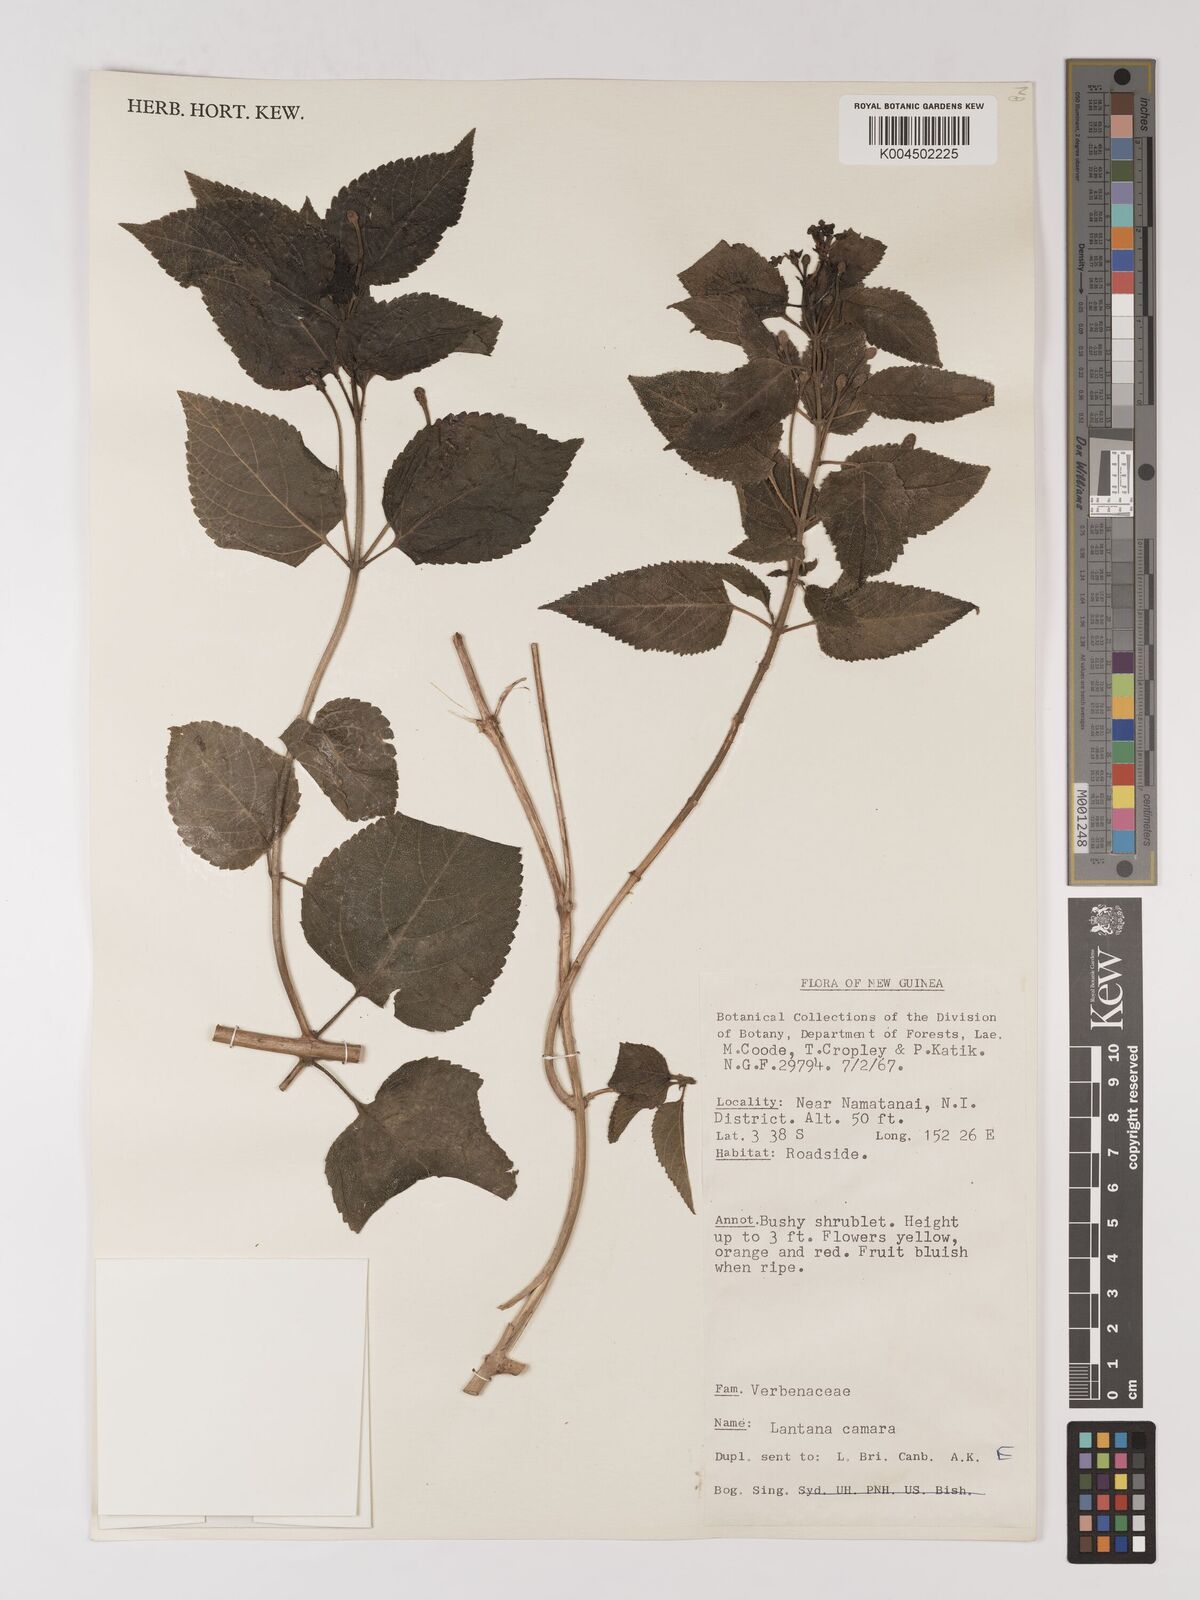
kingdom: Plantae
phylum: Tracheophyta
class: Magnoliopsida
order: Lamiales
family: Verbenaceae
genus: Lantana
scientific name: Lantana camara
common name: Lantana
